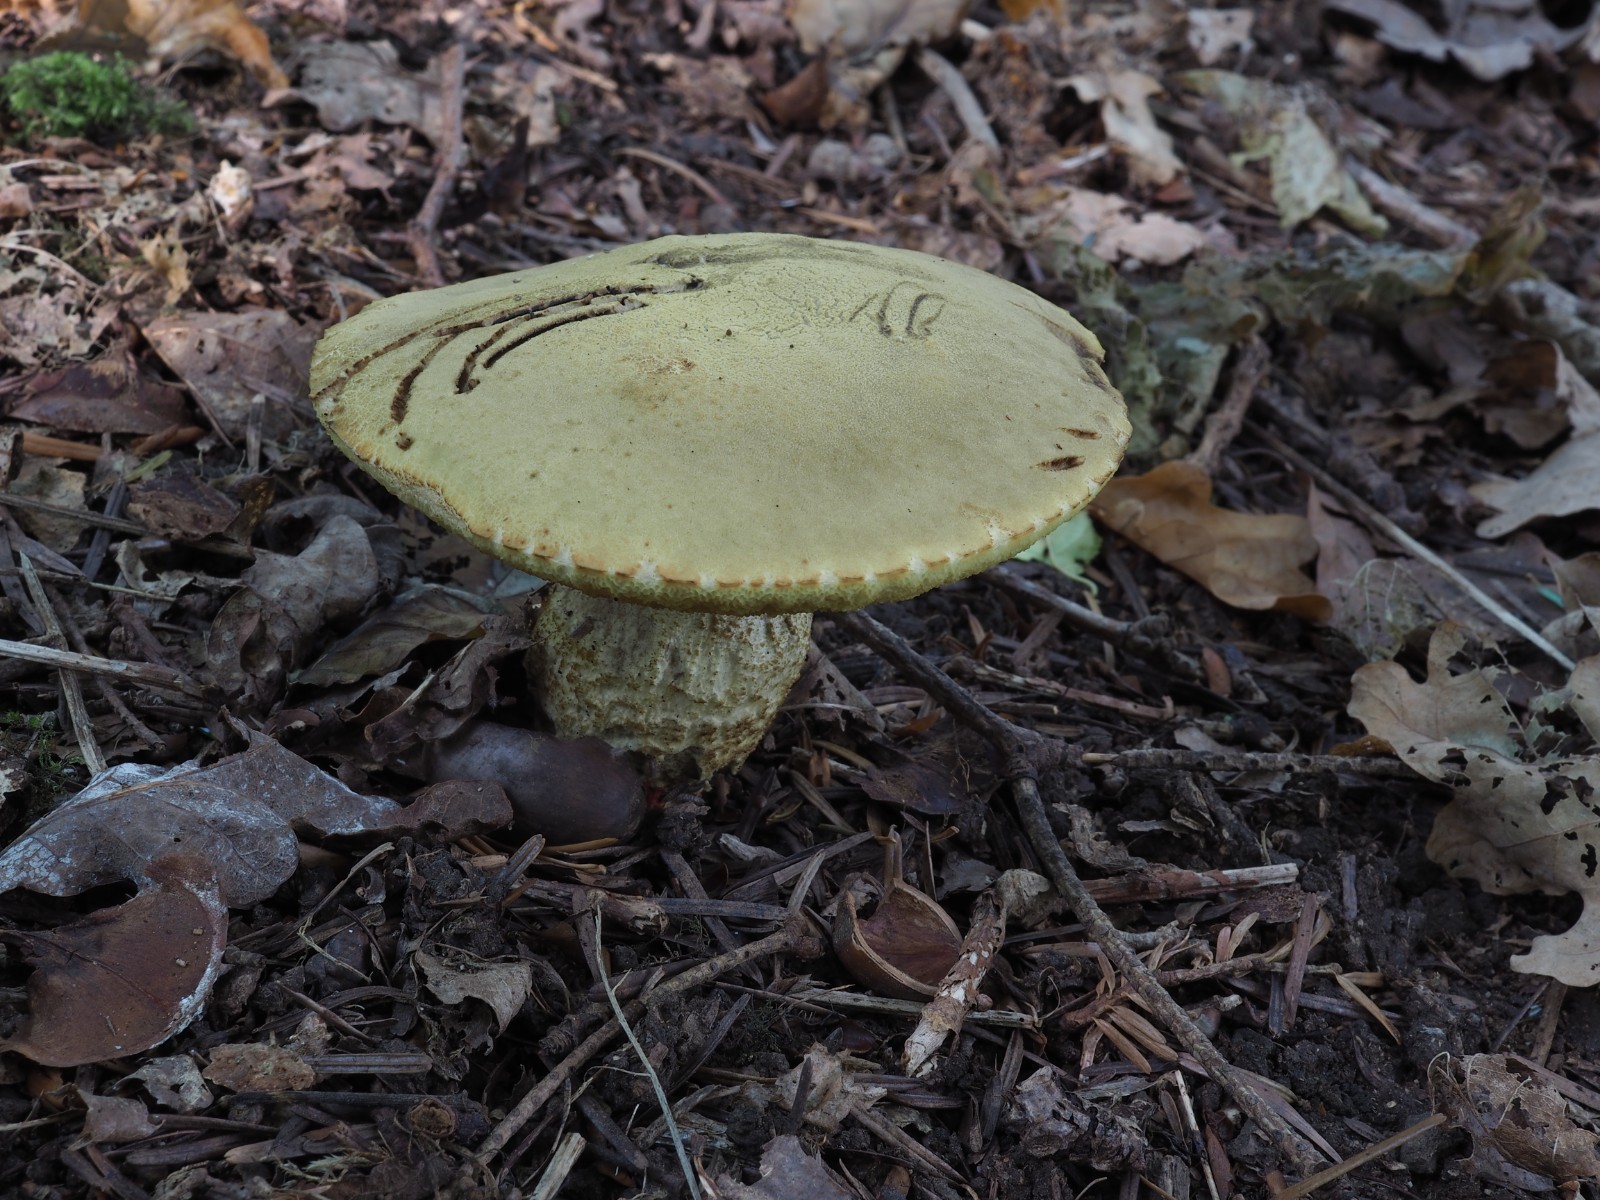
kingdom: Fungi
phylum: Basidiomycota
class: Agaricomycetes
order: Boletales
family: Boletaceae
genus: Leccinellum
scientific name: Leccinellum crocipodium
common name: gul skælrørhat
